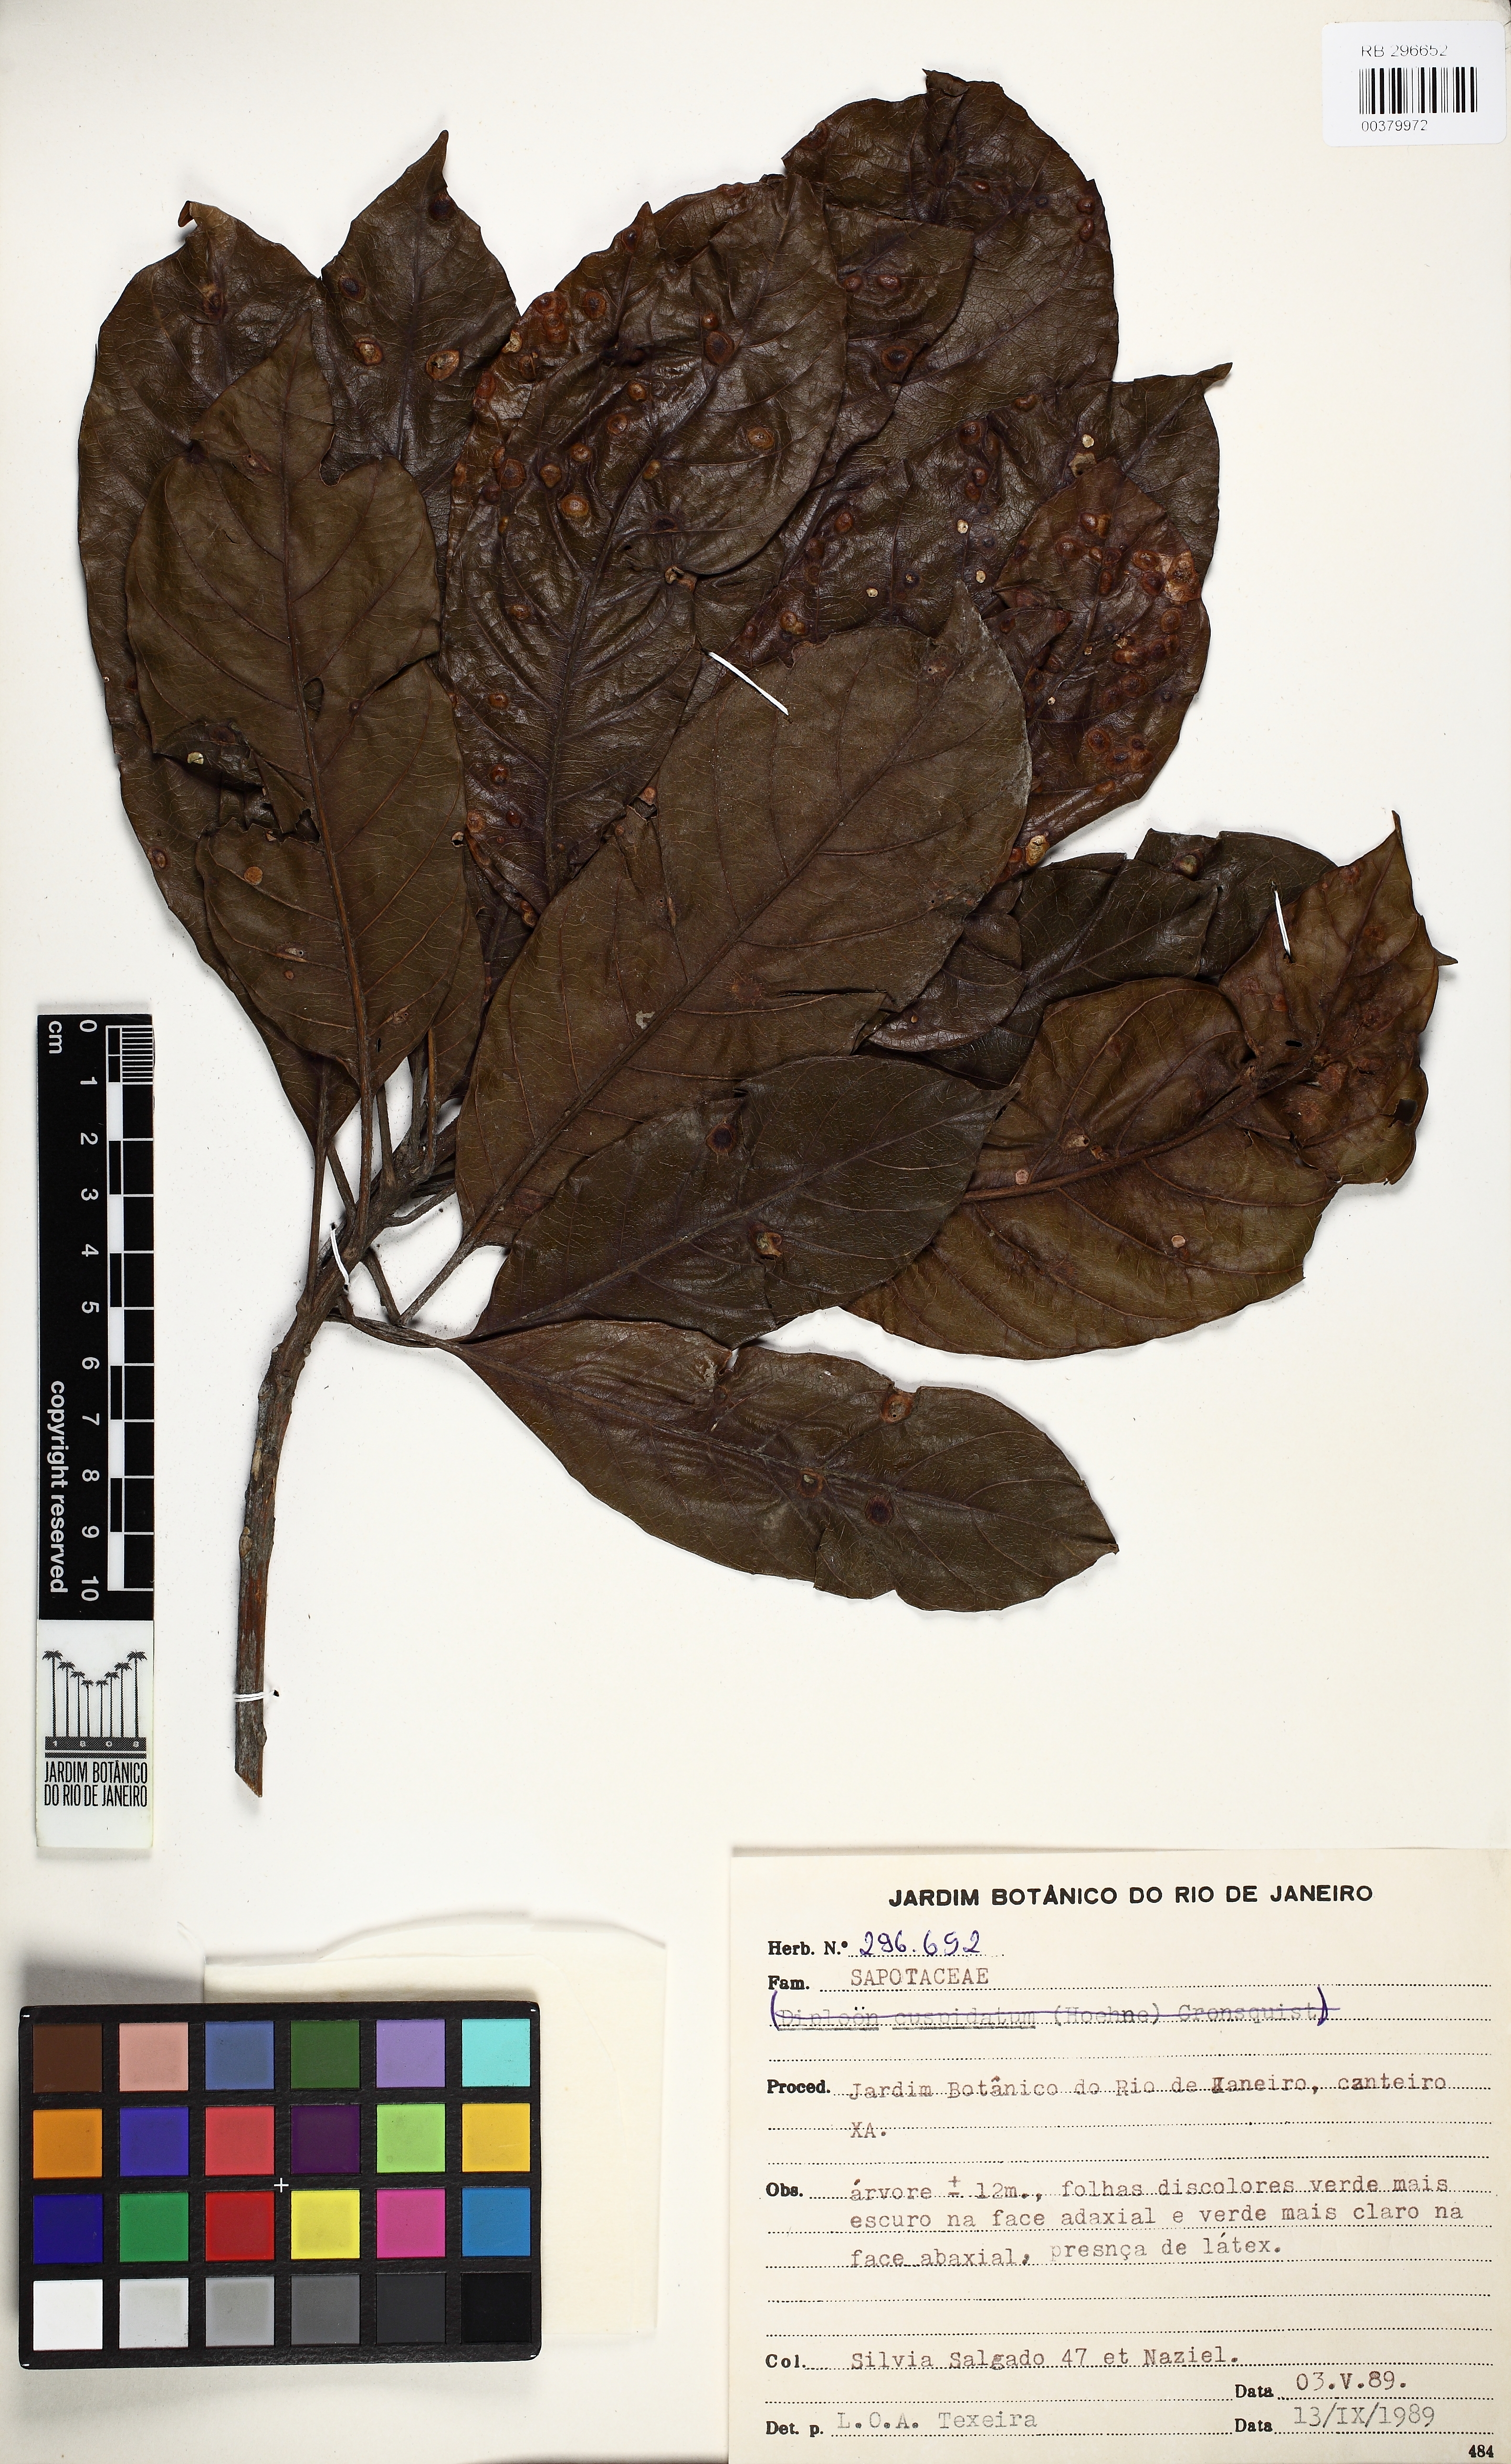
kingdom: Plantae
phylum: Tracheophyta
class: Magnoliopsida
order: Ericales
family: Sapotaceae
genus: Pouteria
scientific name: Pouteria psammophila
